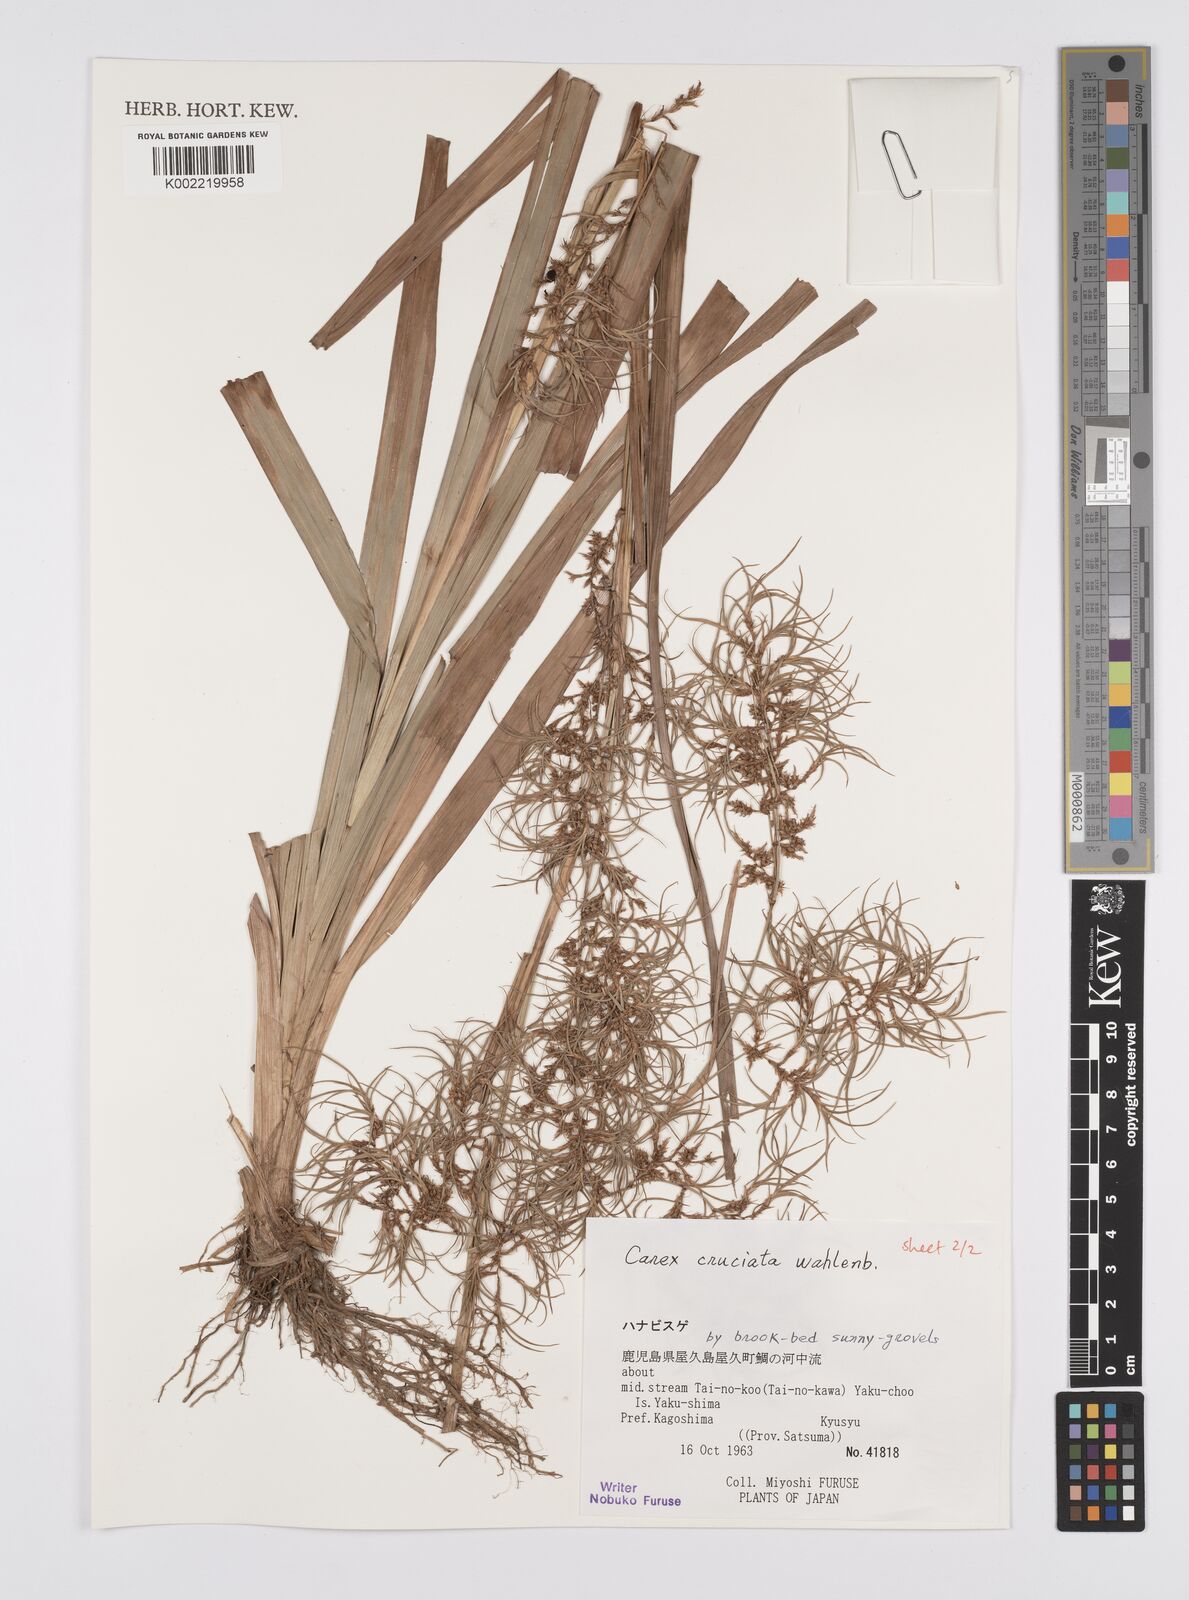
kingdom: Plantae
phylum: Tracheophyta
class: Liliopsida
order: Poales
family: Cyperaceae
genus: Carex
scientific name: Carex cruciata
